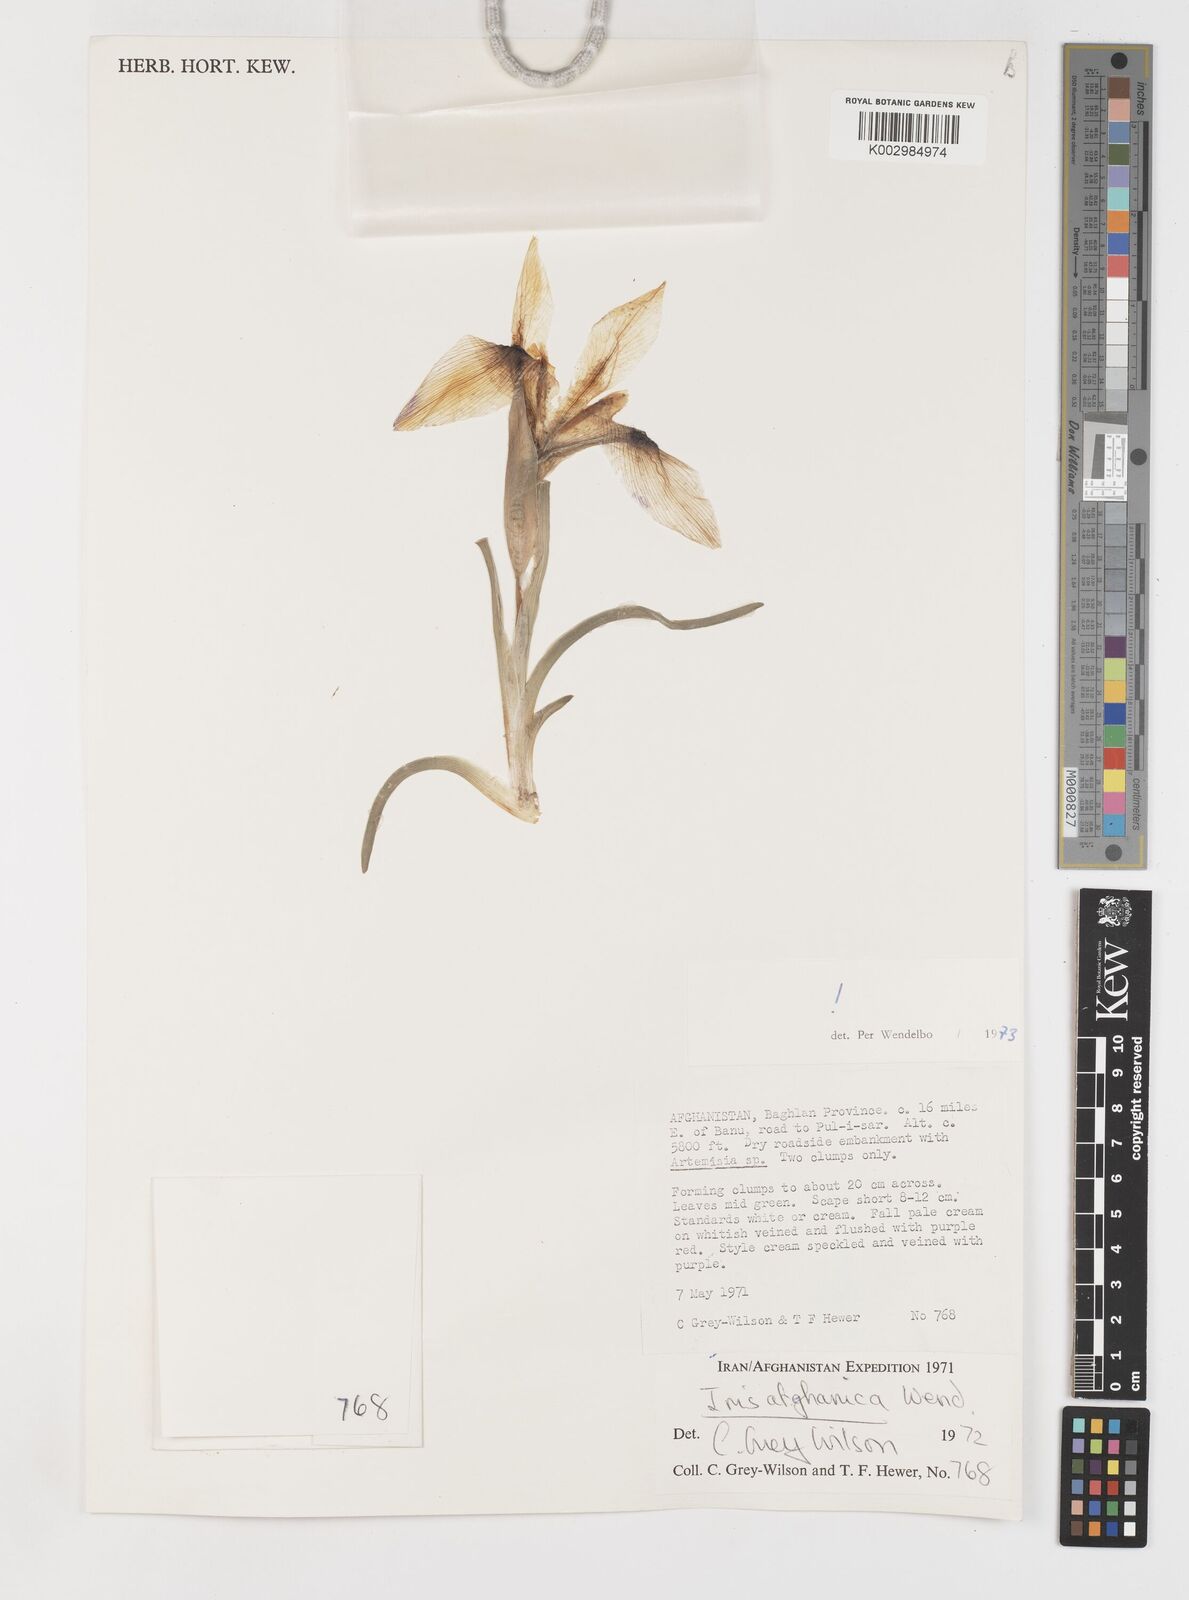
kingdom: Plantae
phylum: Tracheophyta
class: Liliopsida
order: Asparagales
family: Iridaceae
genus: Iris
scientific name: Iris afghanica
